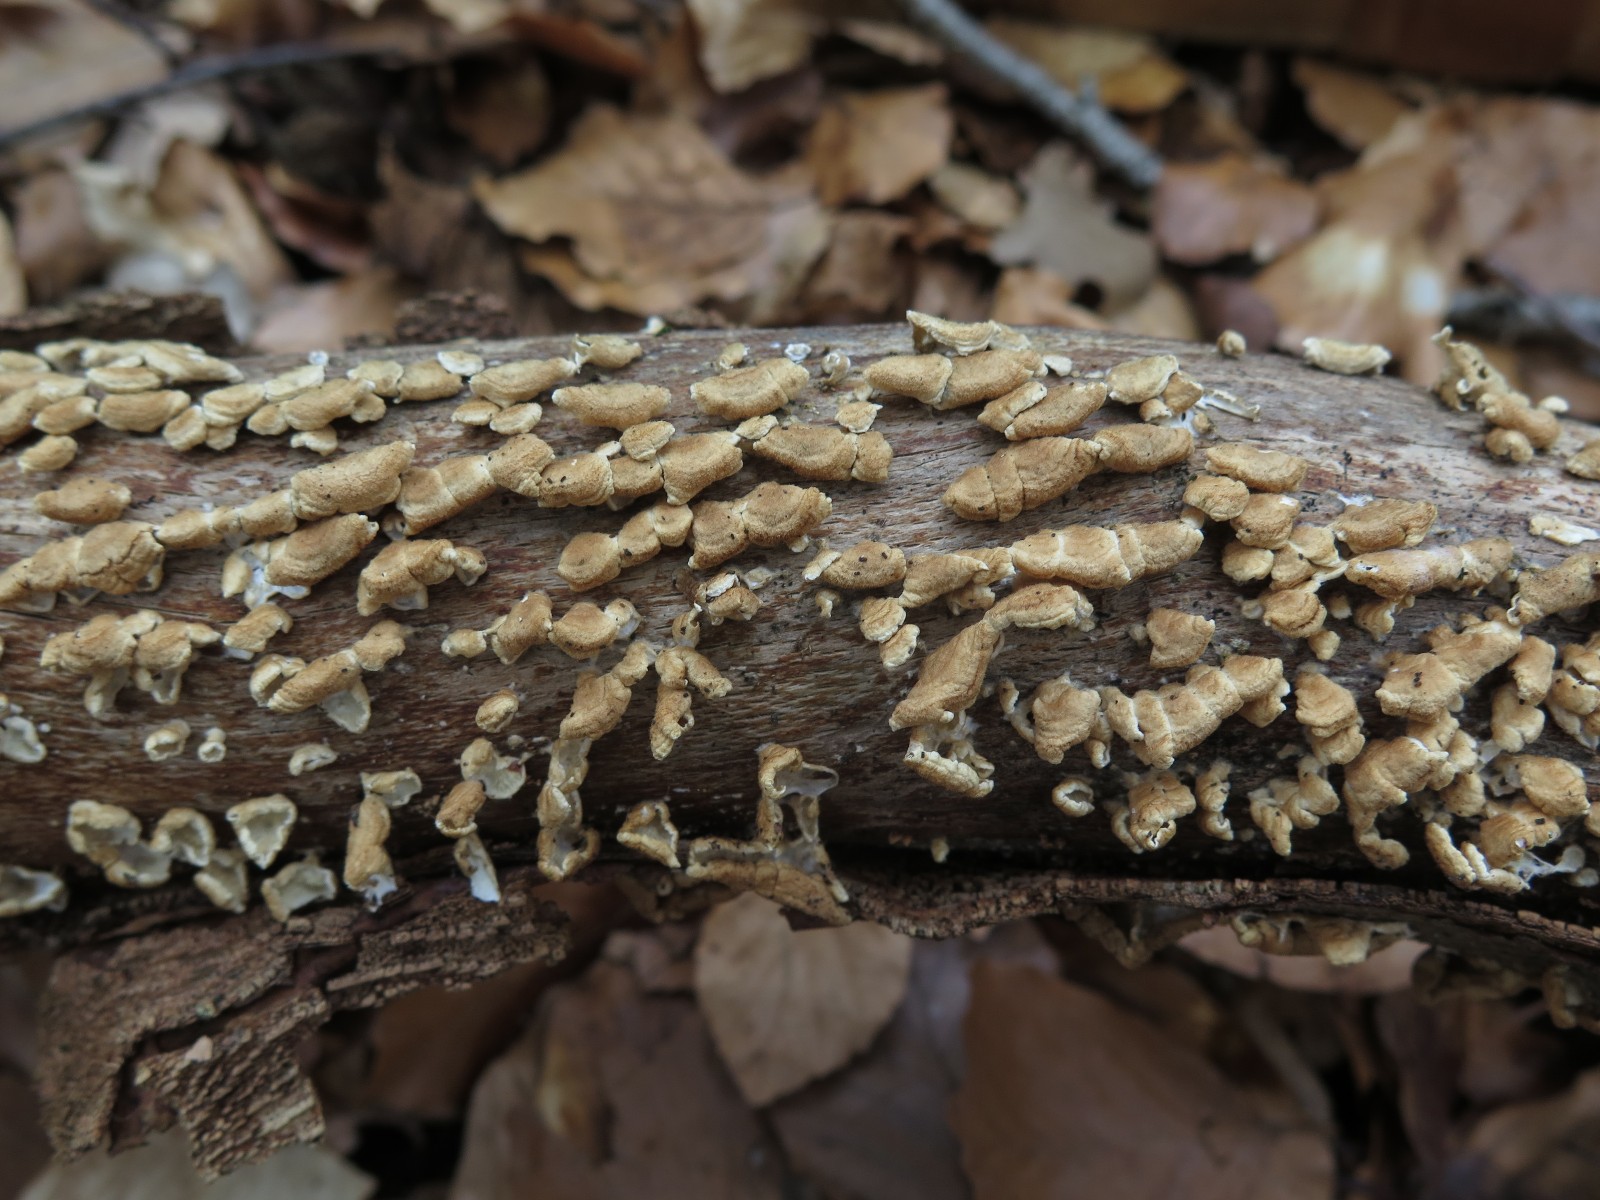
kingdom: Fungi
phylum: Basidiomycota
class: Agaricomycetes
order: Amylocorticiales
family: Amylocorticiaceae
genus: Plicaturopsis
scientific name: Plicaturopsis crispa
